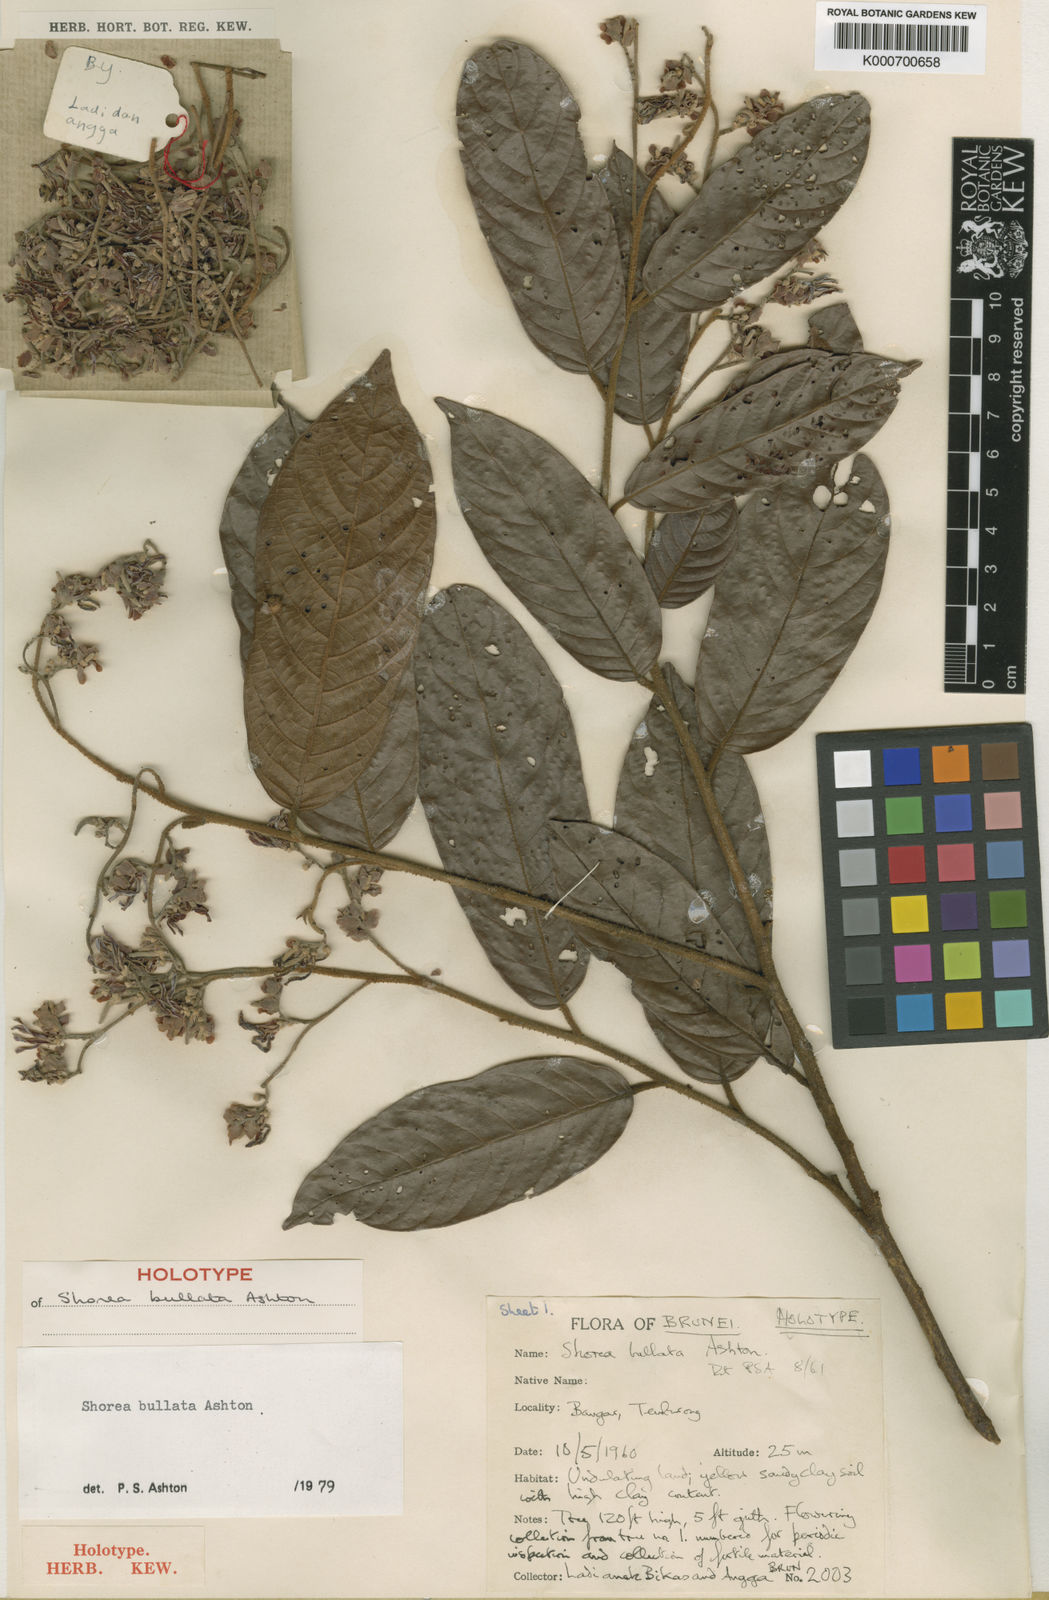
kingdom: Plantae
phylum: Tracheophyta
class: Magnoliopsida
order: Malvales
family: Dipterocarpaceae
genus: Shorea
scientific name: Shorea bullata
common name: Dark red meranti
